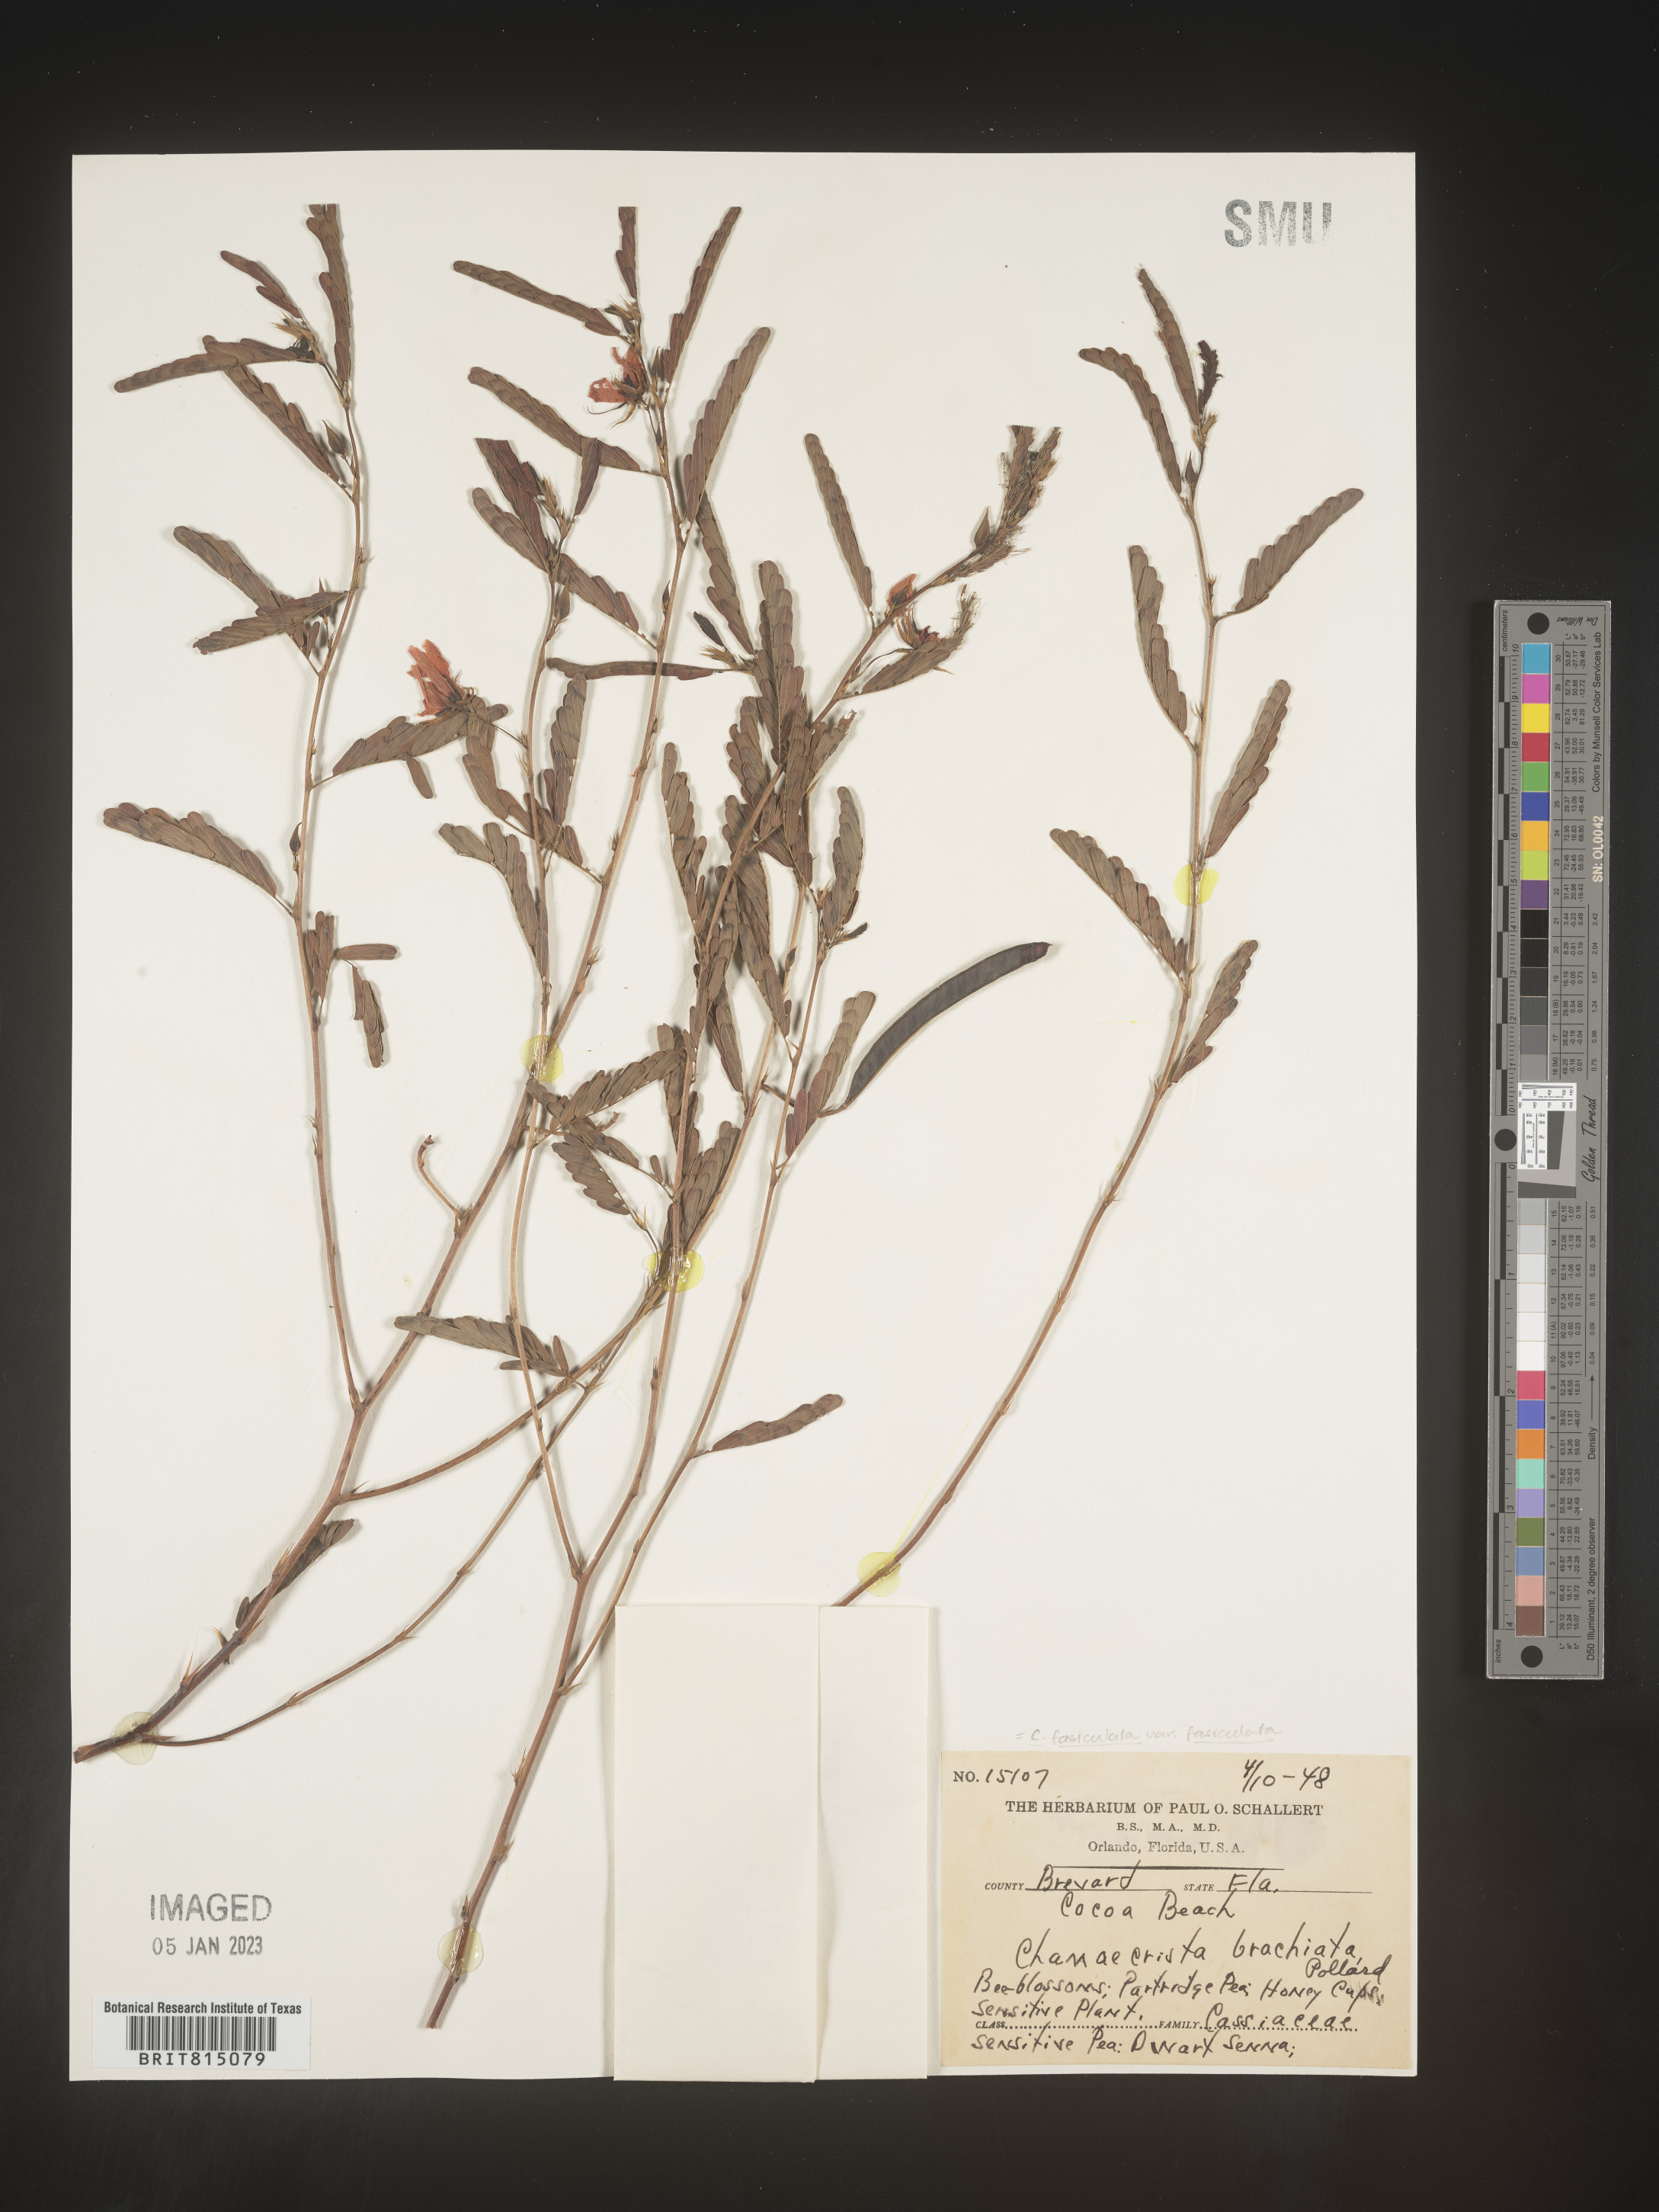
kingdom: Plantae
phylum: Tracheophyta
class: Magnoliopsida
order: Fabales
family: Fabaceae
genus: Chamaecrista
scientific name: Chamaecrista fasciculata
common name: Golden cassia
